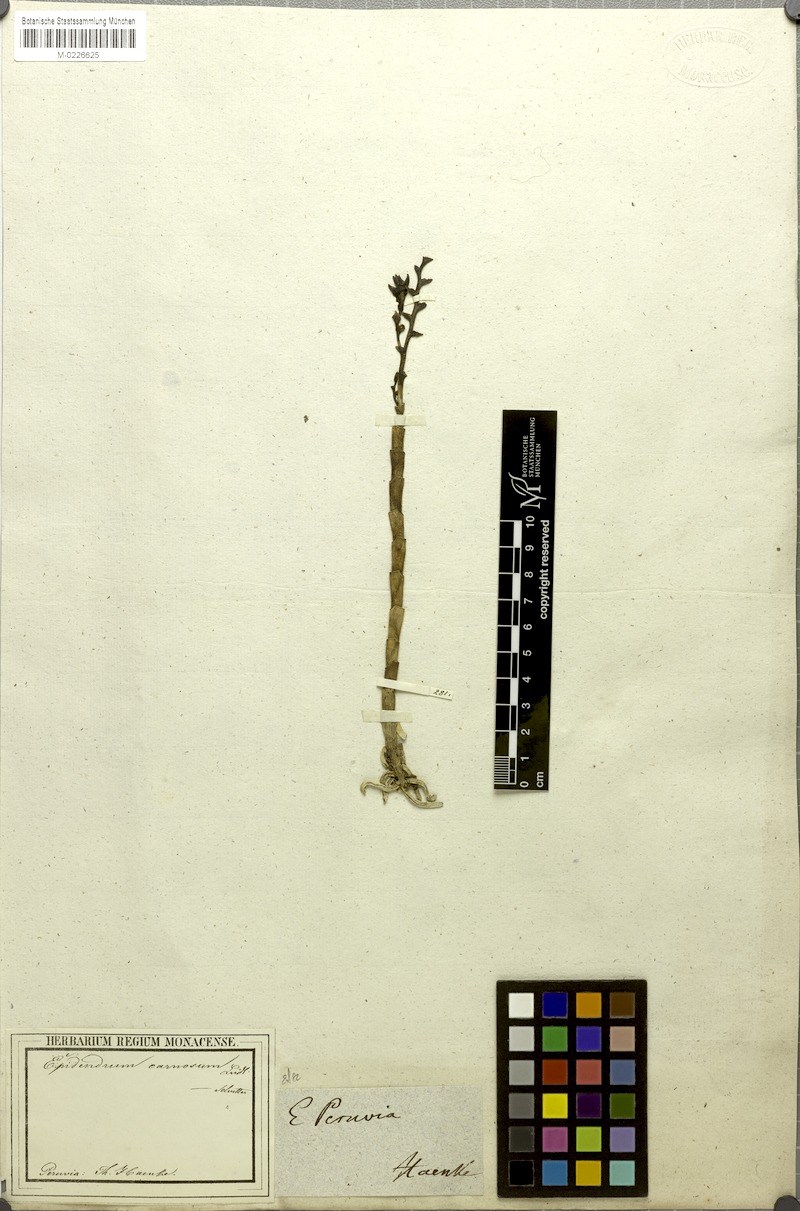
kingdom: Plantae
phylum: Tracheophyta
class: Liliopsida
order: Asparagales
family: Orchidaceae
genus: Epidendrum
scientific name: Epidendrum durum
